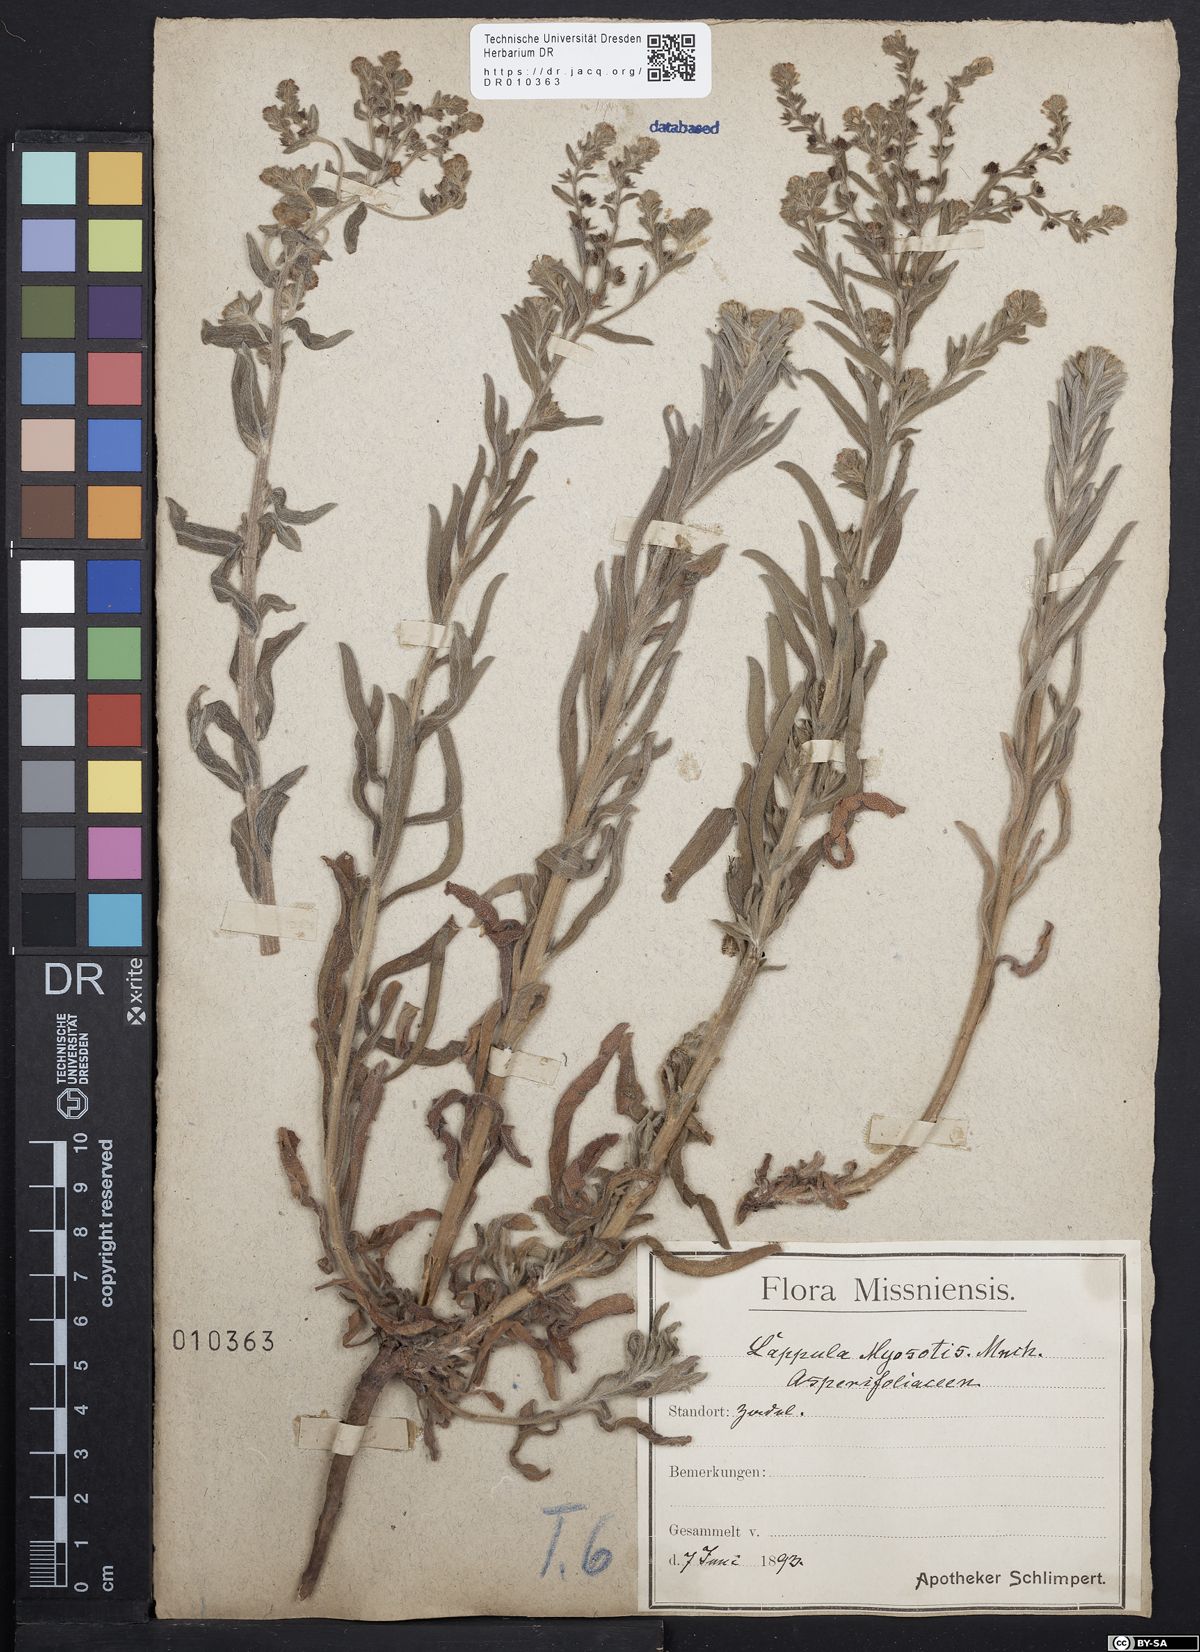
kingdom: Plantae
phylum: Tracheophyta
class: Magnoliopsida
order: Boraginales
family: Boraginaceae
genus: Lappula
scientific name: Lappula squarrosa
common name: European stickseed
